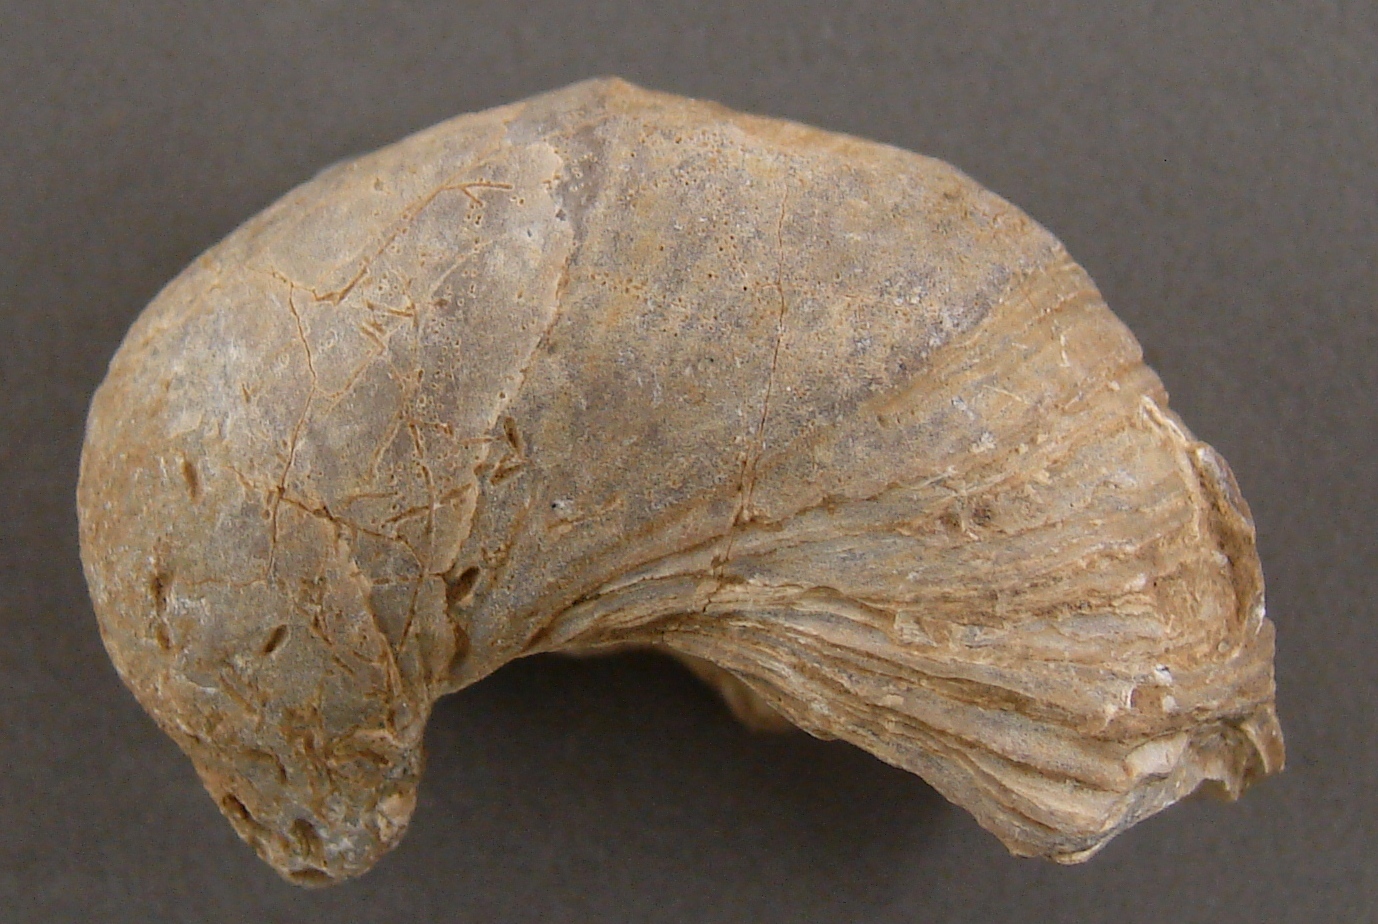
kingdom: Animalia
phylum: Mollusca
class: Bivalvia
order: Ostreida
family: Gryphaeidae
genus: Gryphaea
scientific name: Gryphaea
